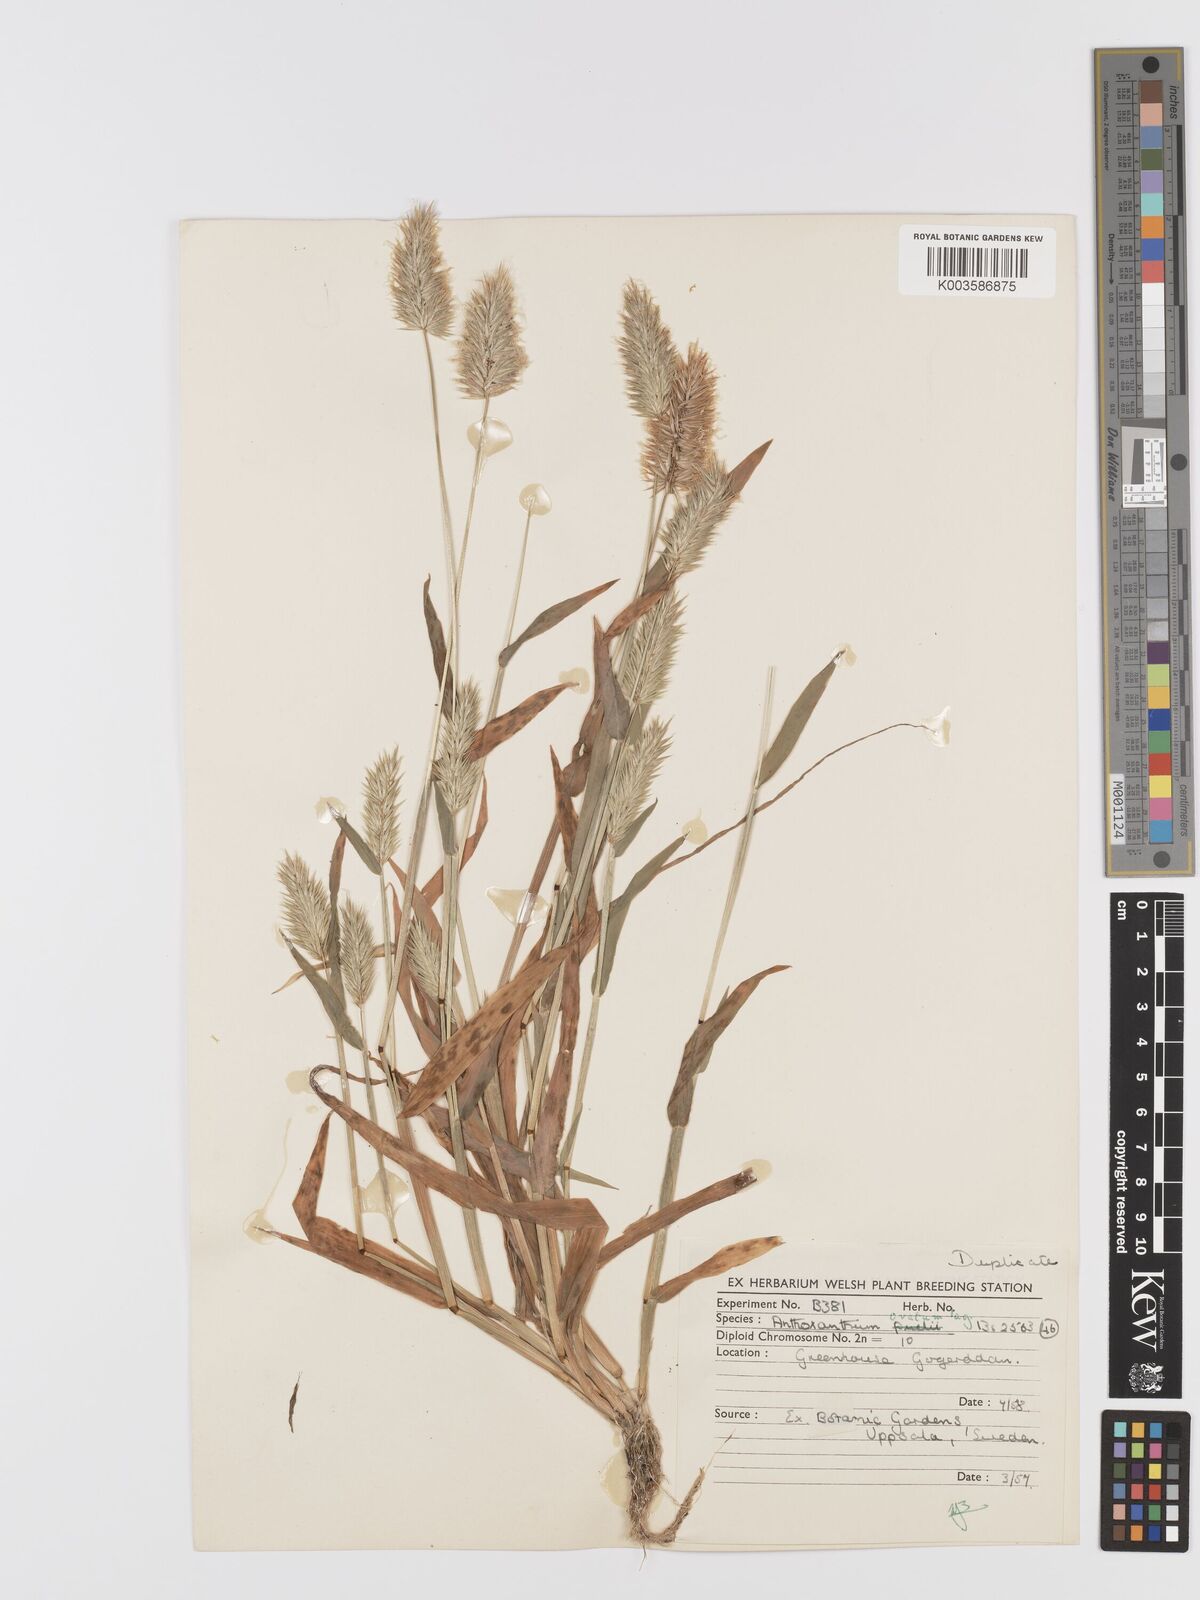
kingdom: Plantae
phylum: Tracheophyta
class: Liliopsida
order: Poales
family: Poaceae
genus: Anthoxanthum
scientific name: Anthoxanthum ovatum
